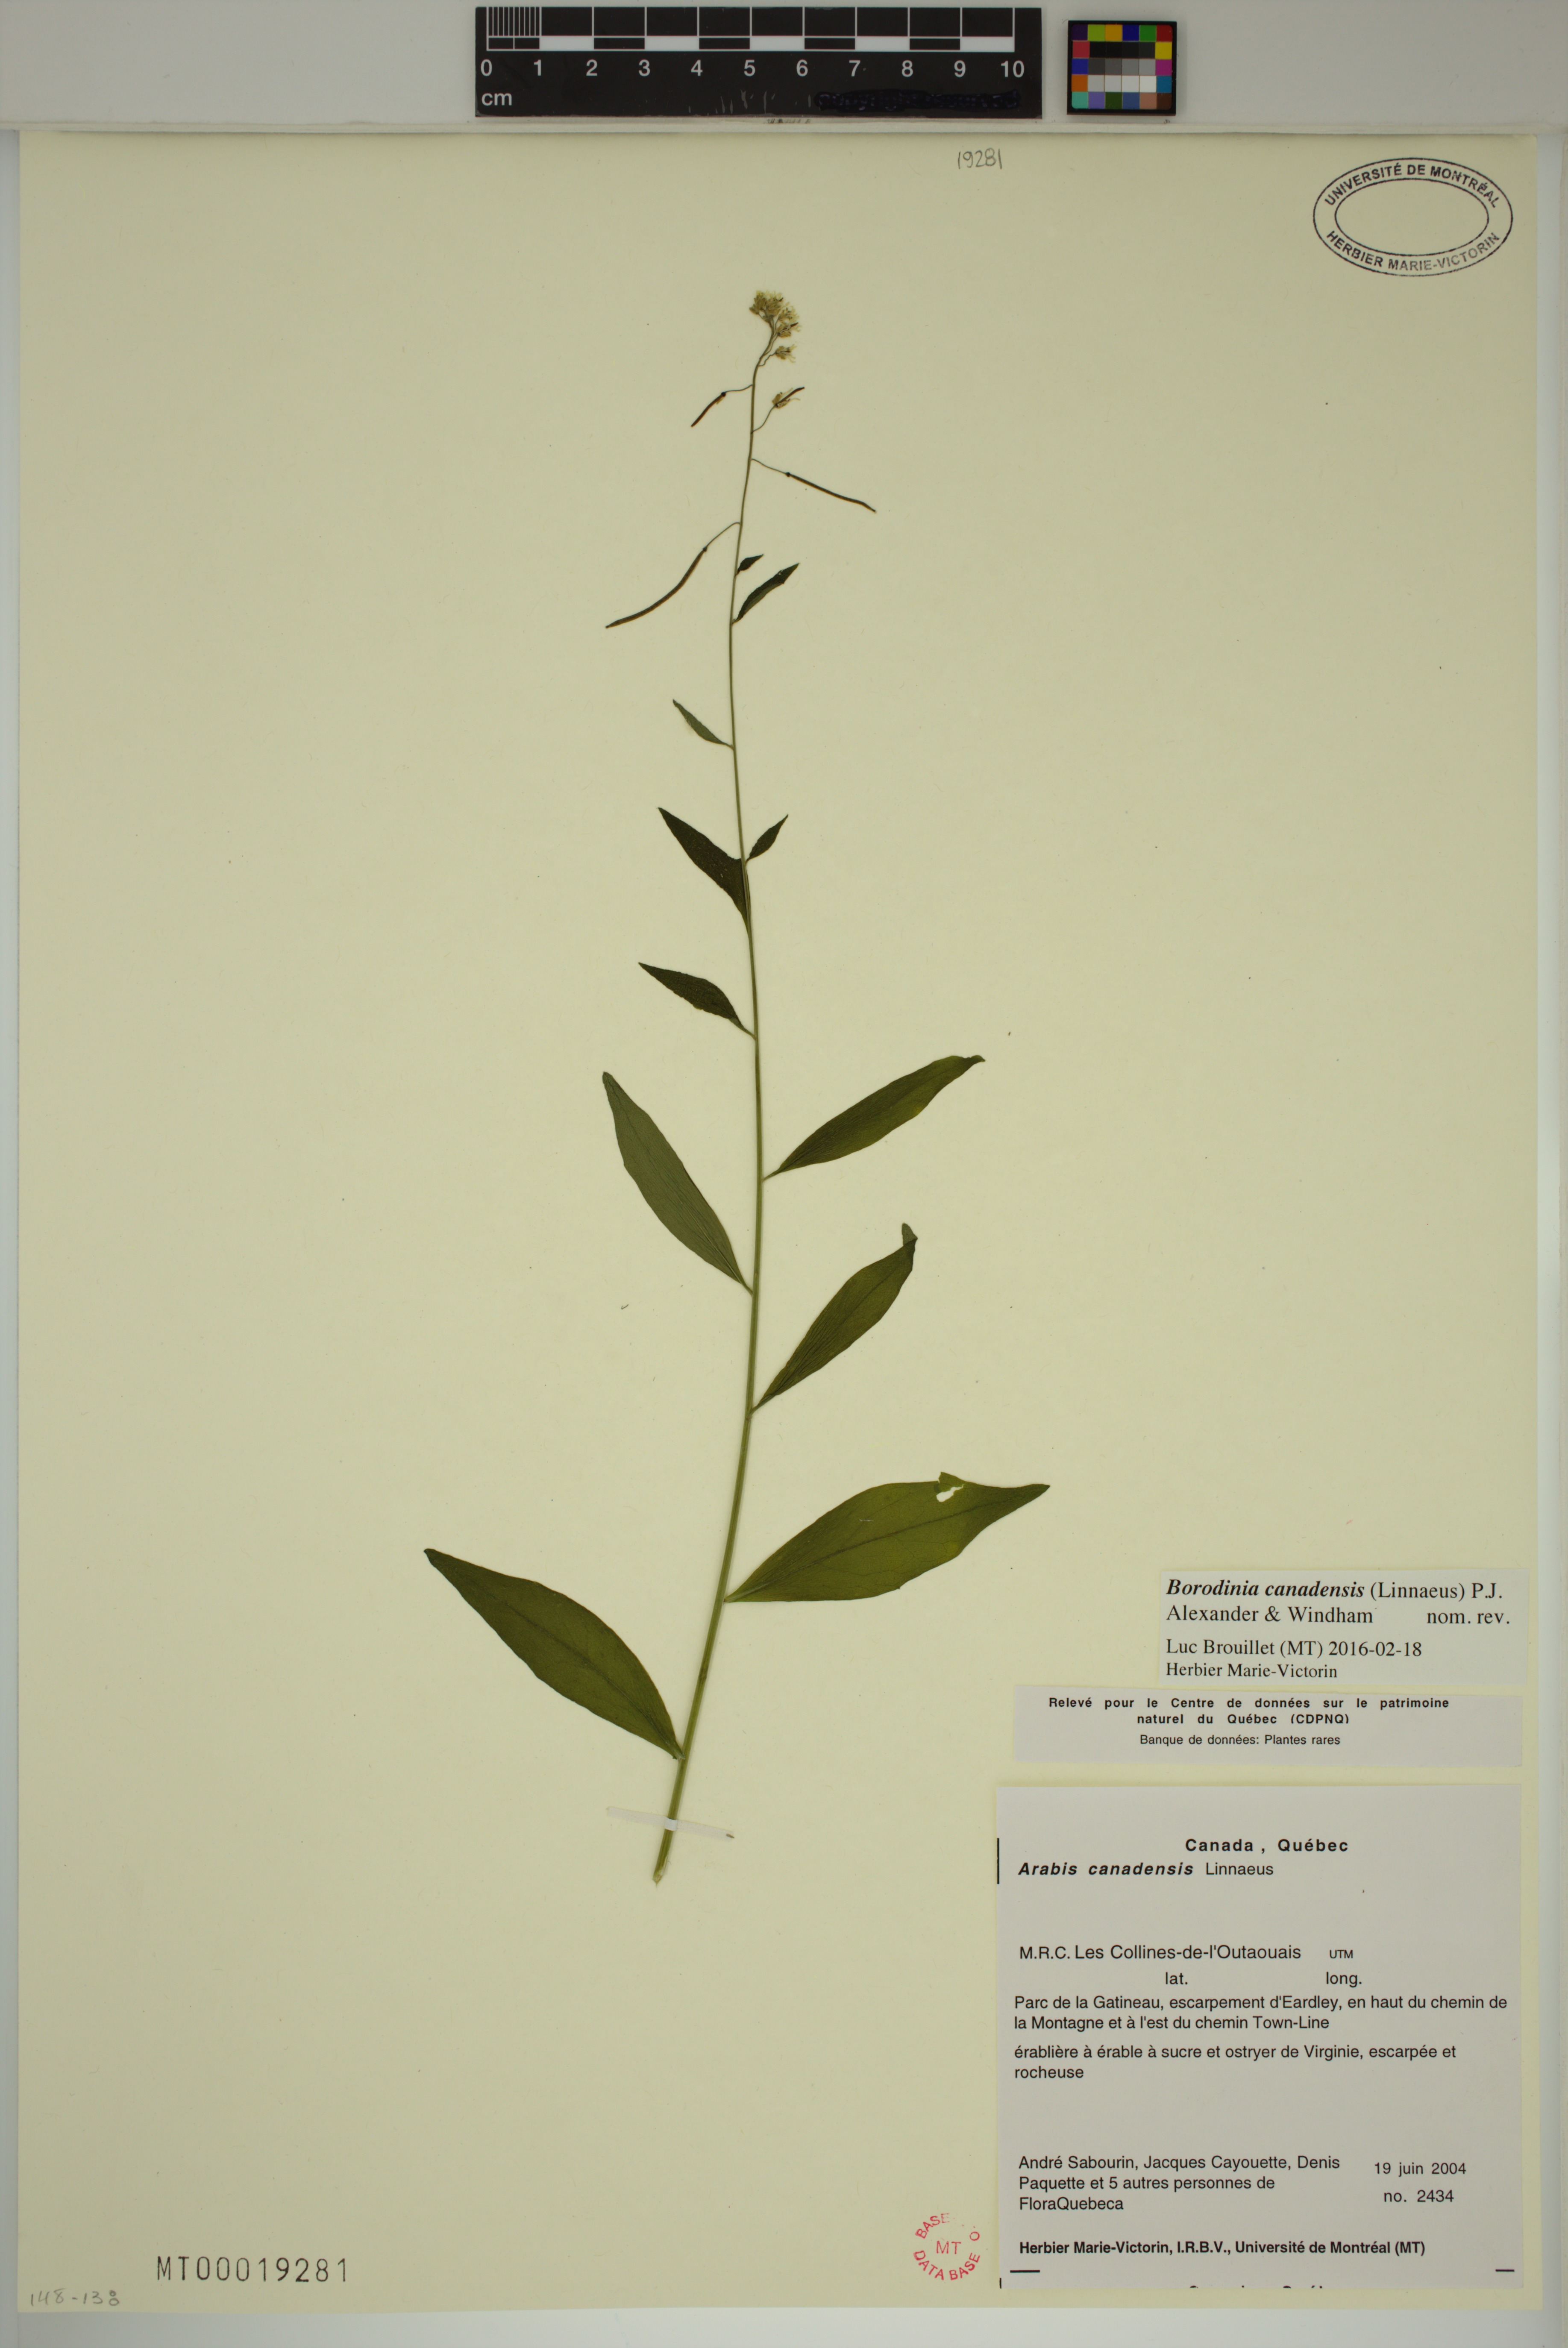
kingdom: Plantae
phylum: Tracheophyta
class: Magnoliopsida
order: Brassicales
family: Brassicaceae
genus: Borodinia
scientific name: Borodinia canadensis
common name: Sicklepod
